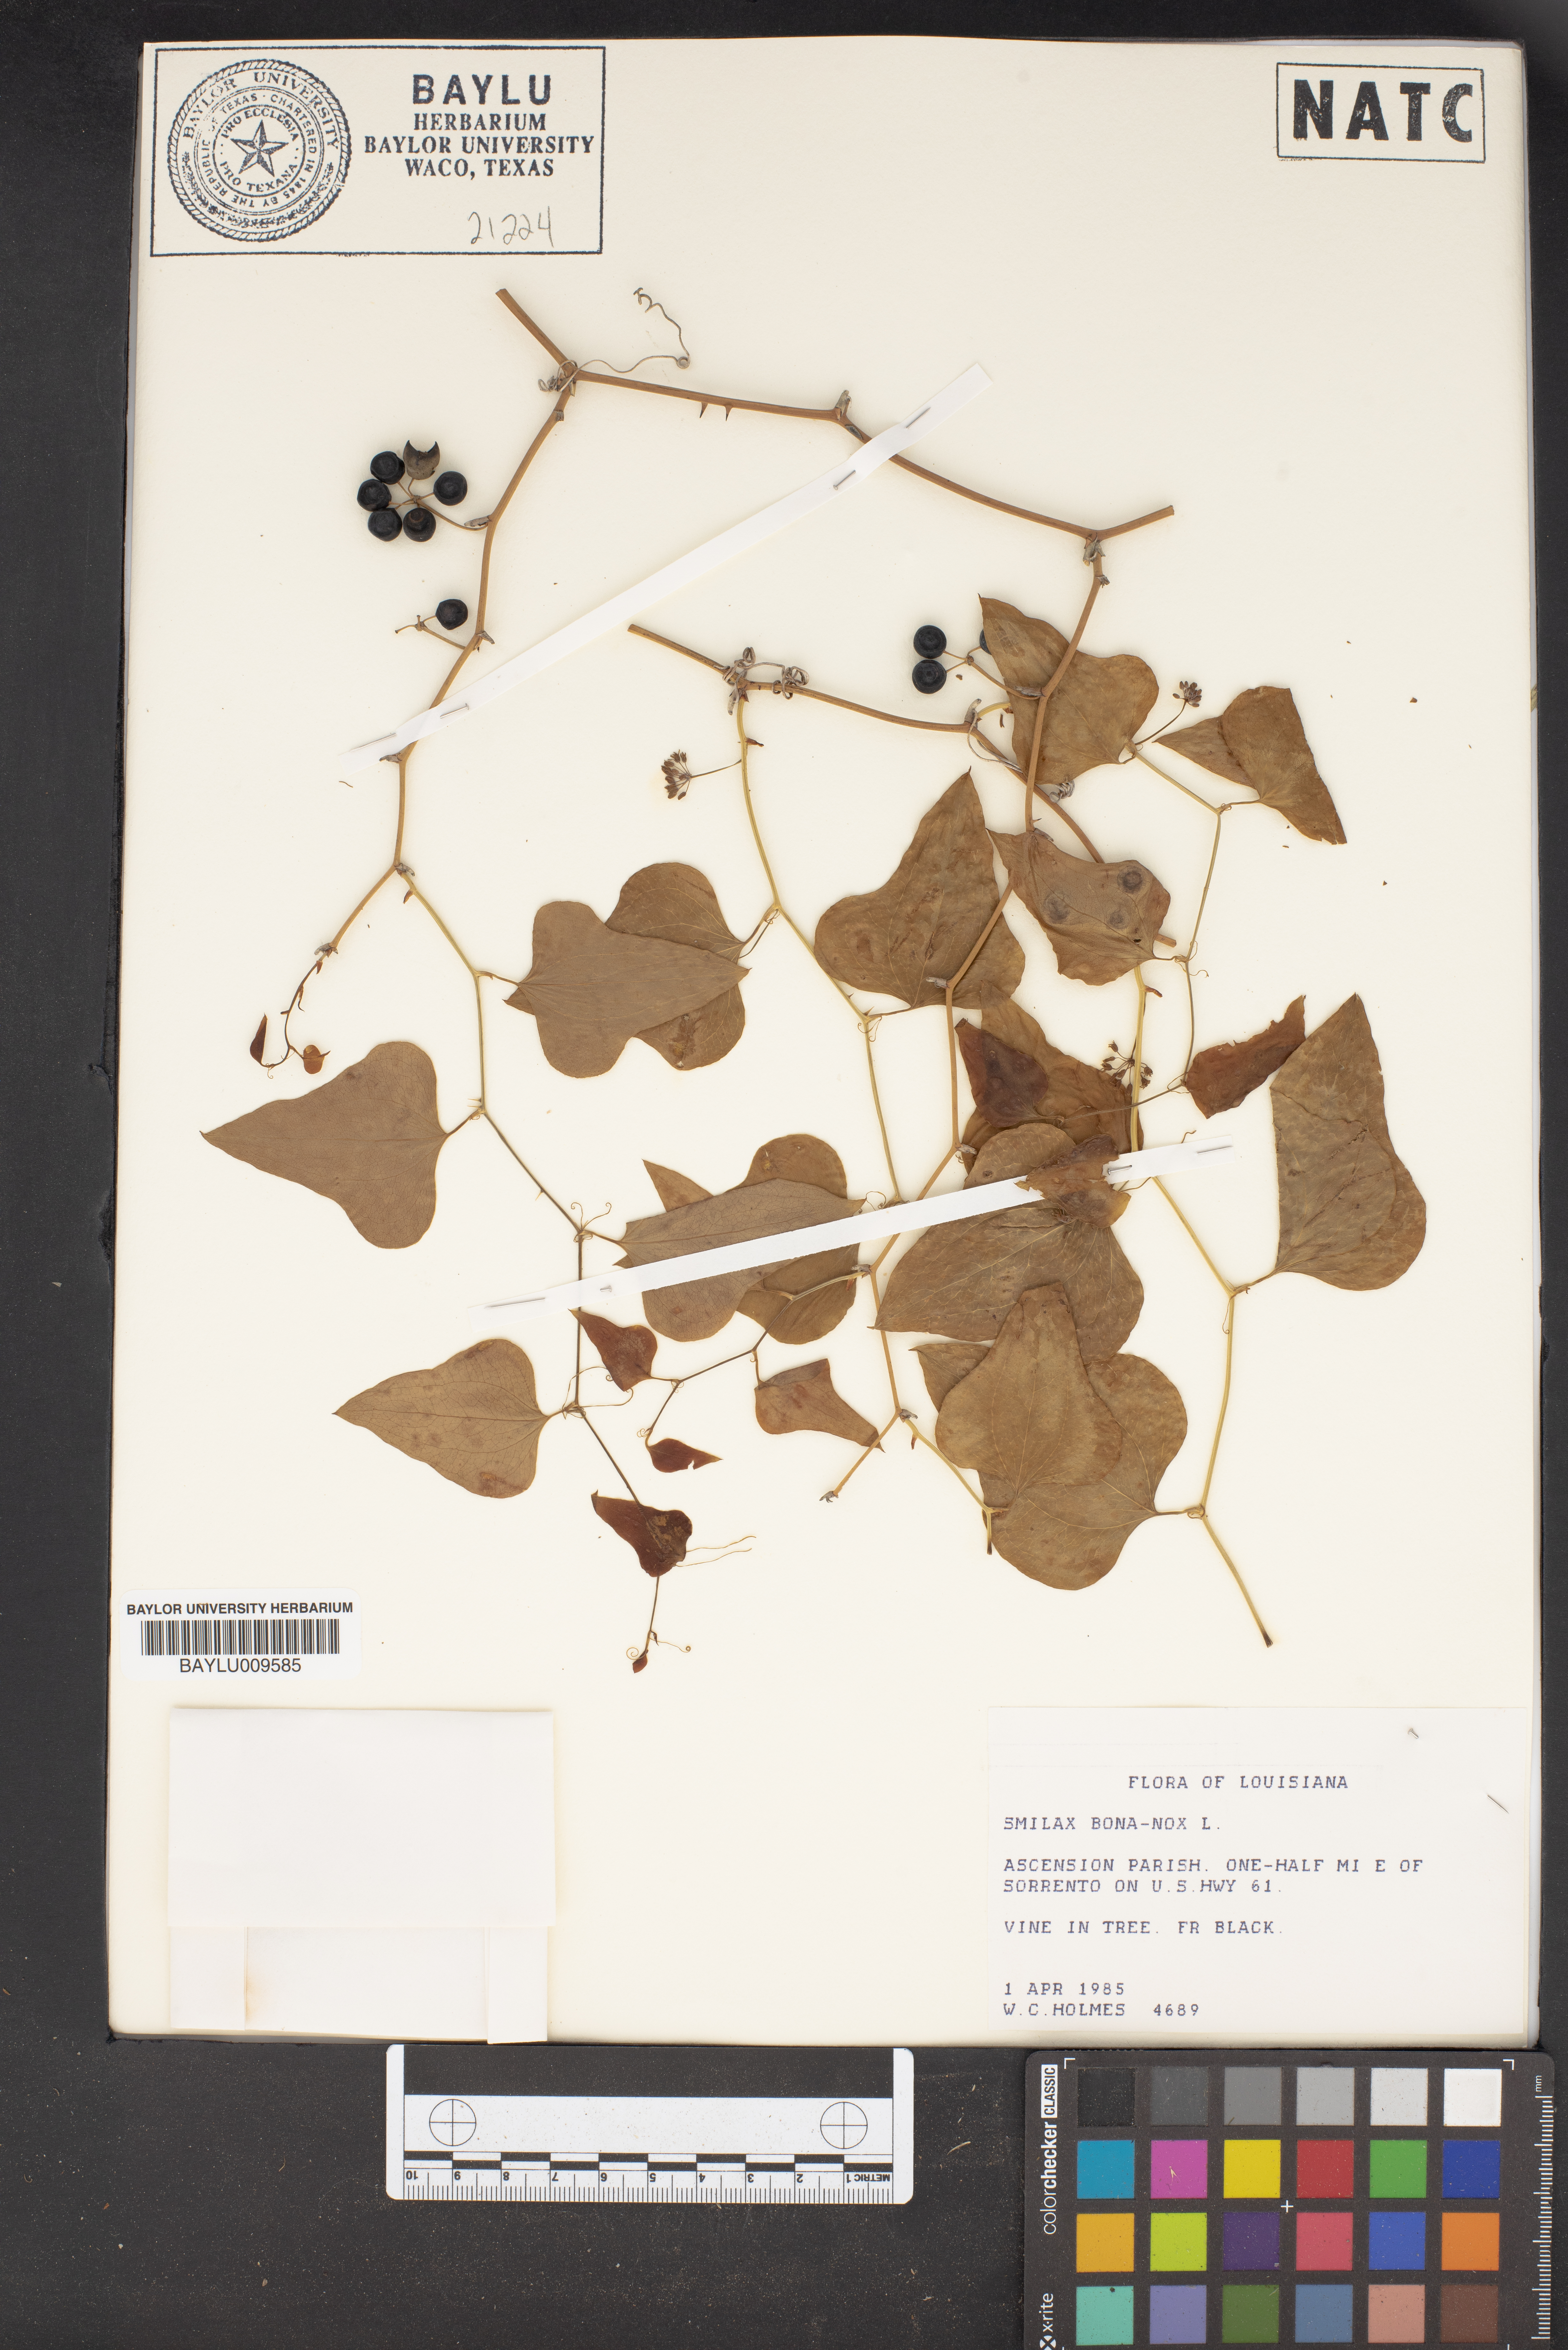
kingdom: Plantae
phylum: Tracheophyta
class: Liliopsida
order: Liliales
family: Smilacaceae
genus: Smilax
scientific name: Smilax bona-nox
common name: Catbrier
